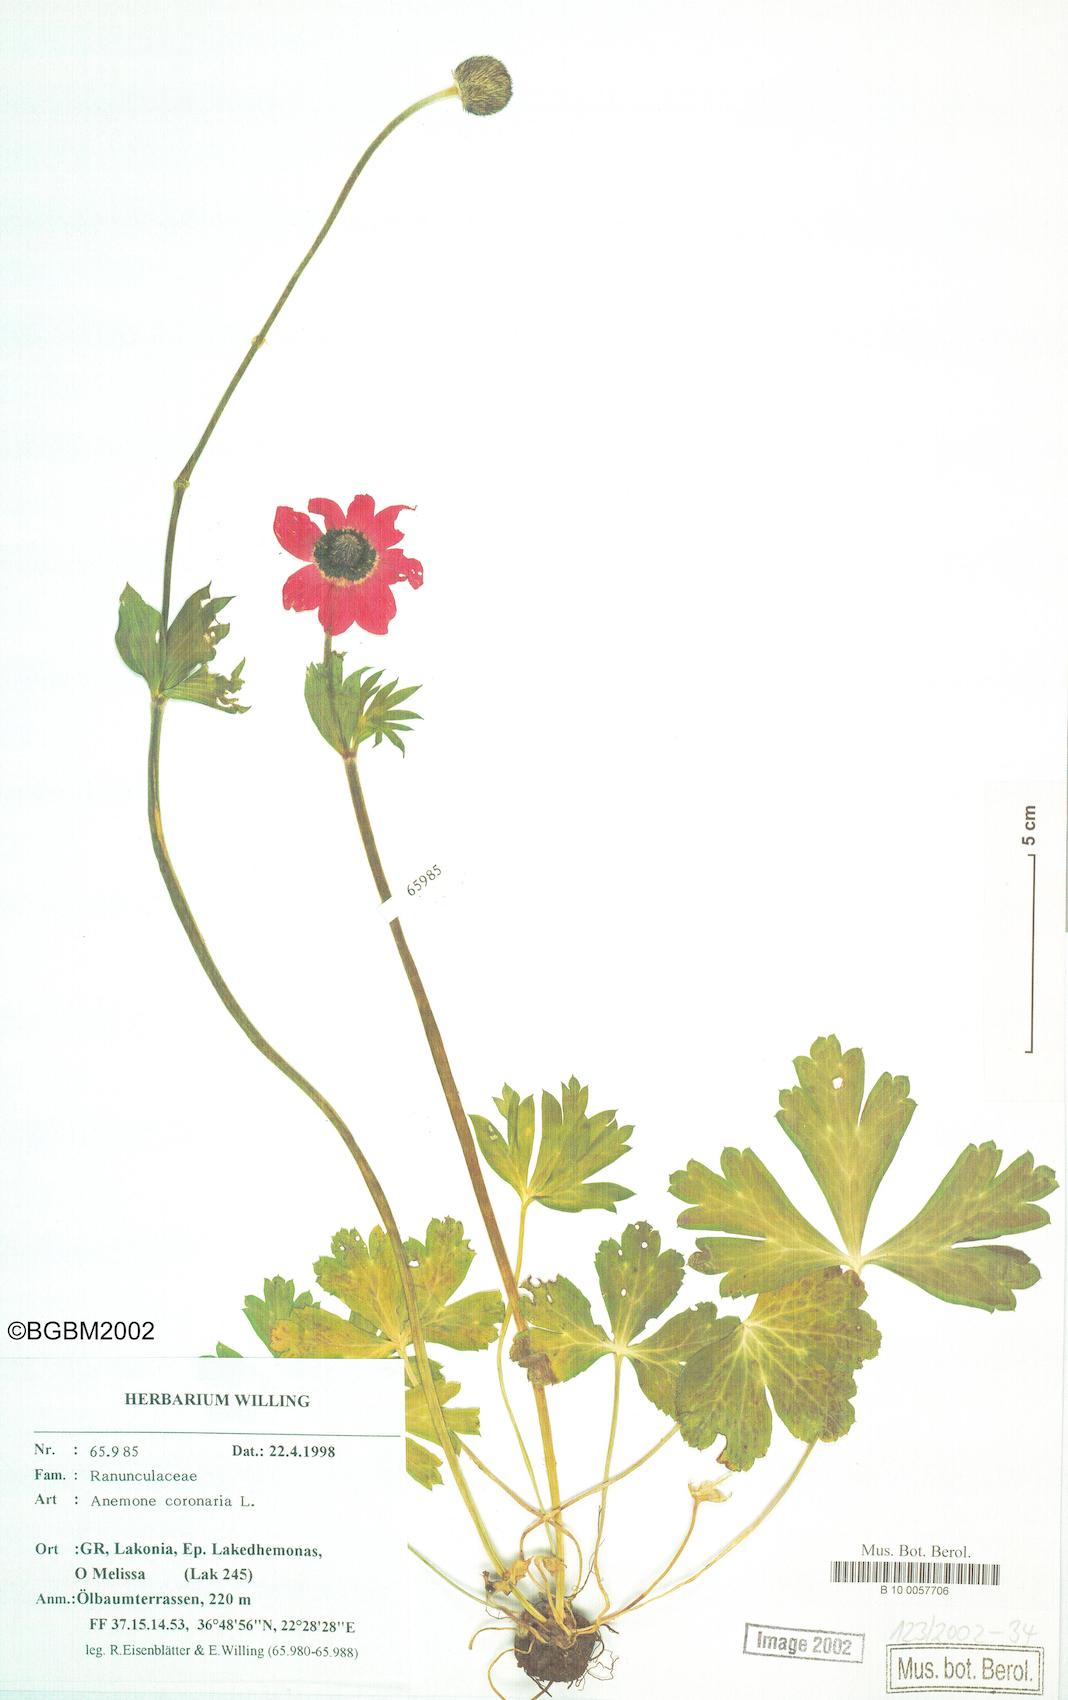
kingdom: Plantae
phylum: Tracheophyta
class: Magnoliopsida
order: Ranunculales
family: Ranunculaceae
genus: Anemone
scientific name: Anemone coronaria
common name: Poppy anemone
